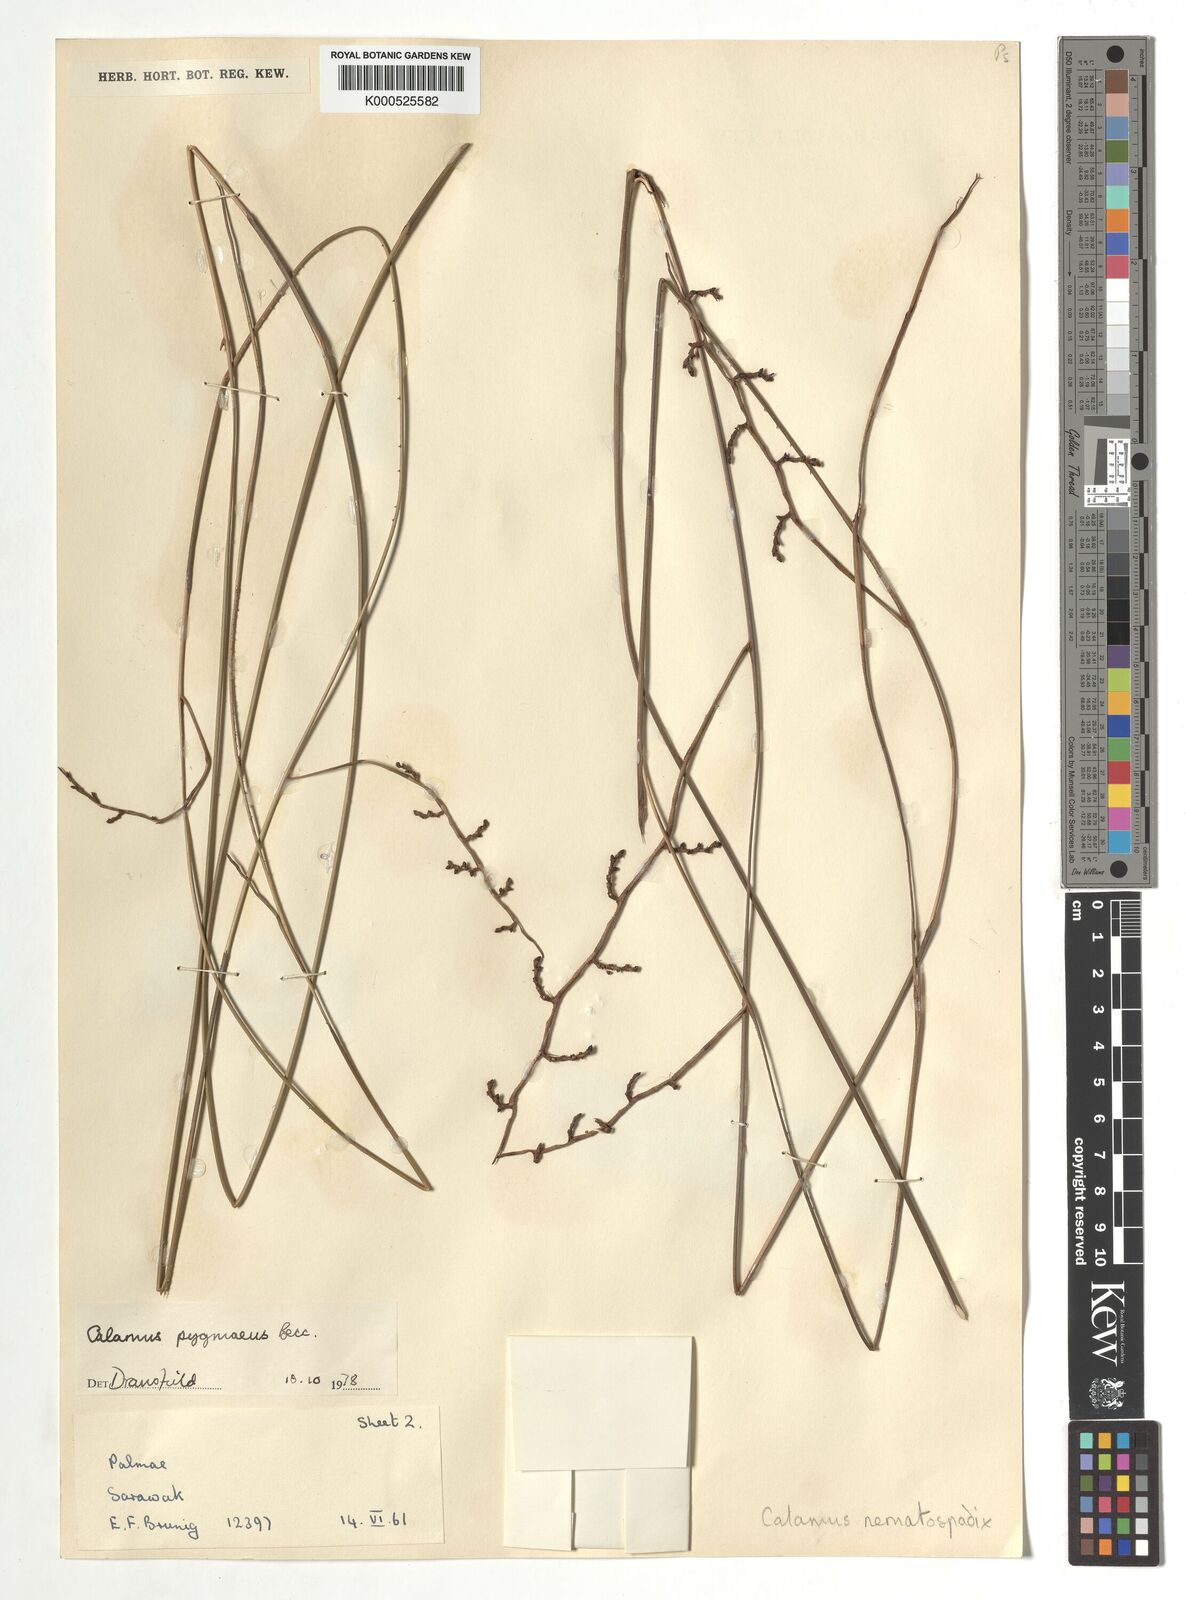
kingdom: Plantae
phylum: Tracheophyta
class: Liliopsida
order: Arecales
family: Arecaceae
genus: Calamus
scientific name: Calamus pygmaeus
